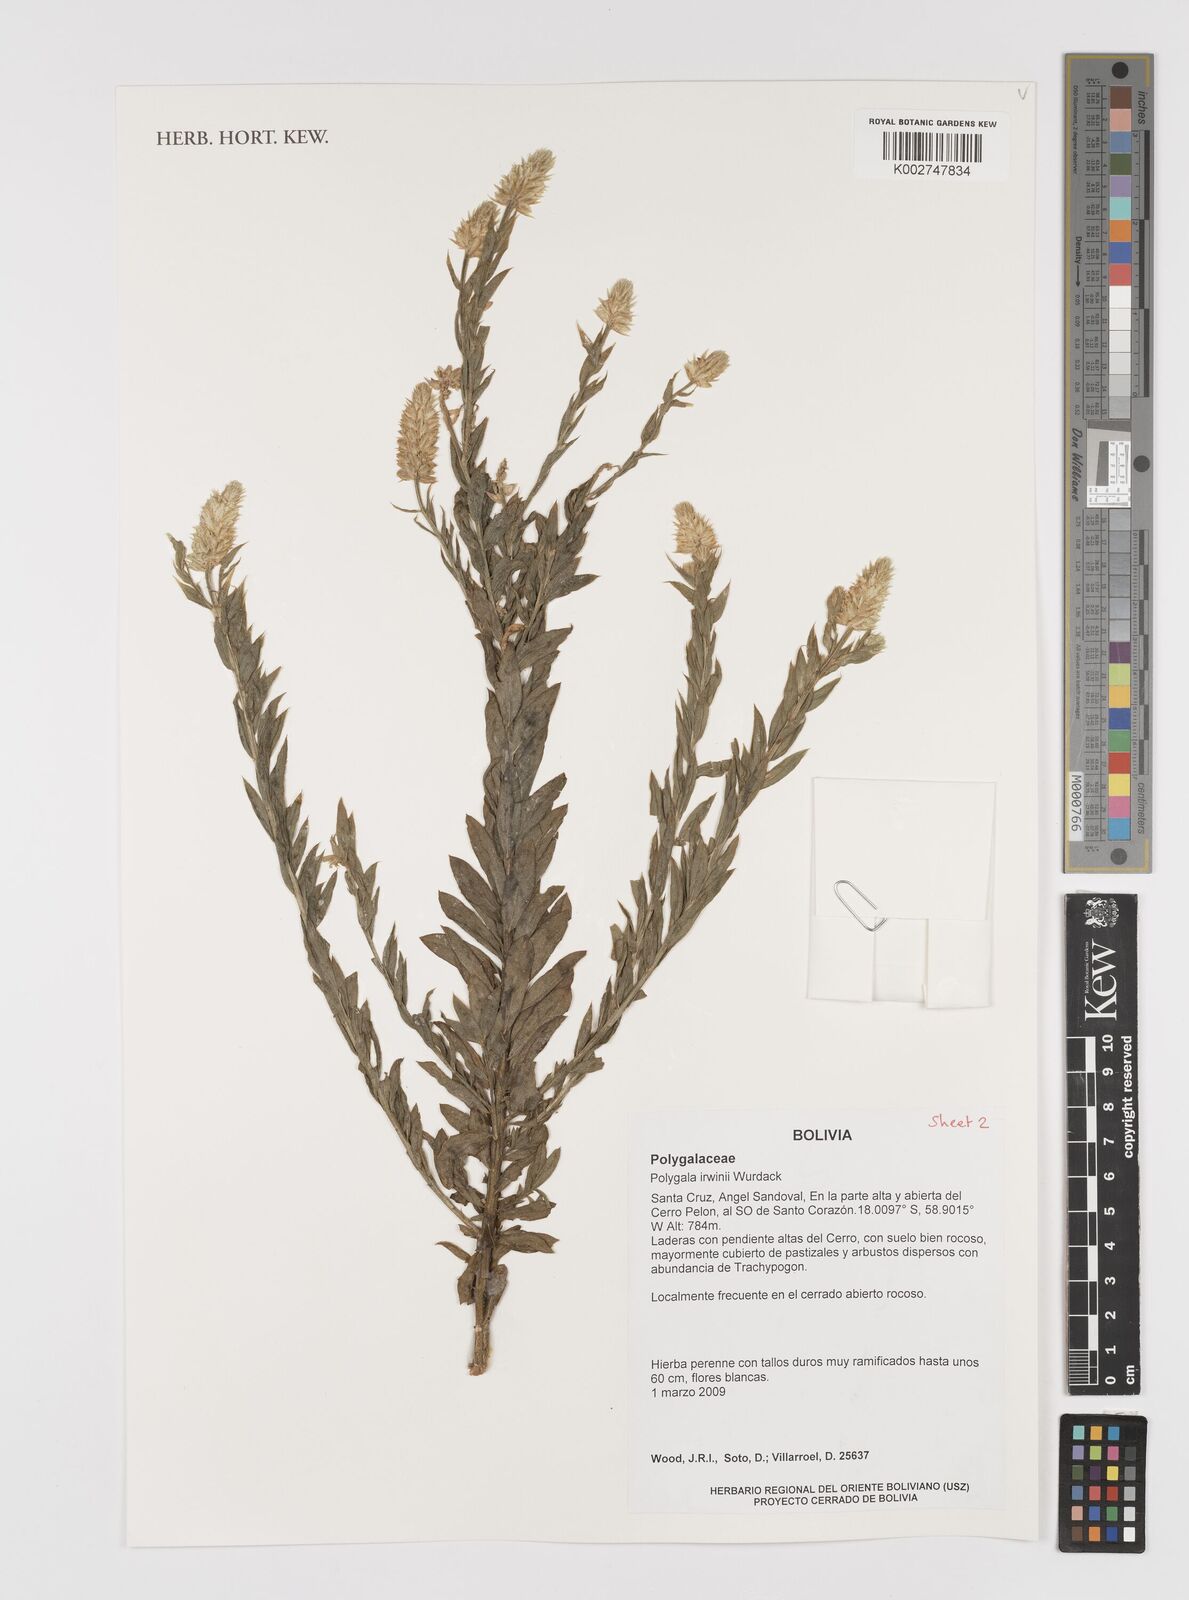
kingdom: Plantae
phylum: Tracheophyta
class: Magnoliopsida
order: Fabales
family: Polygalaceae
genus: Polygala
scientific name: Polygala irwinii
